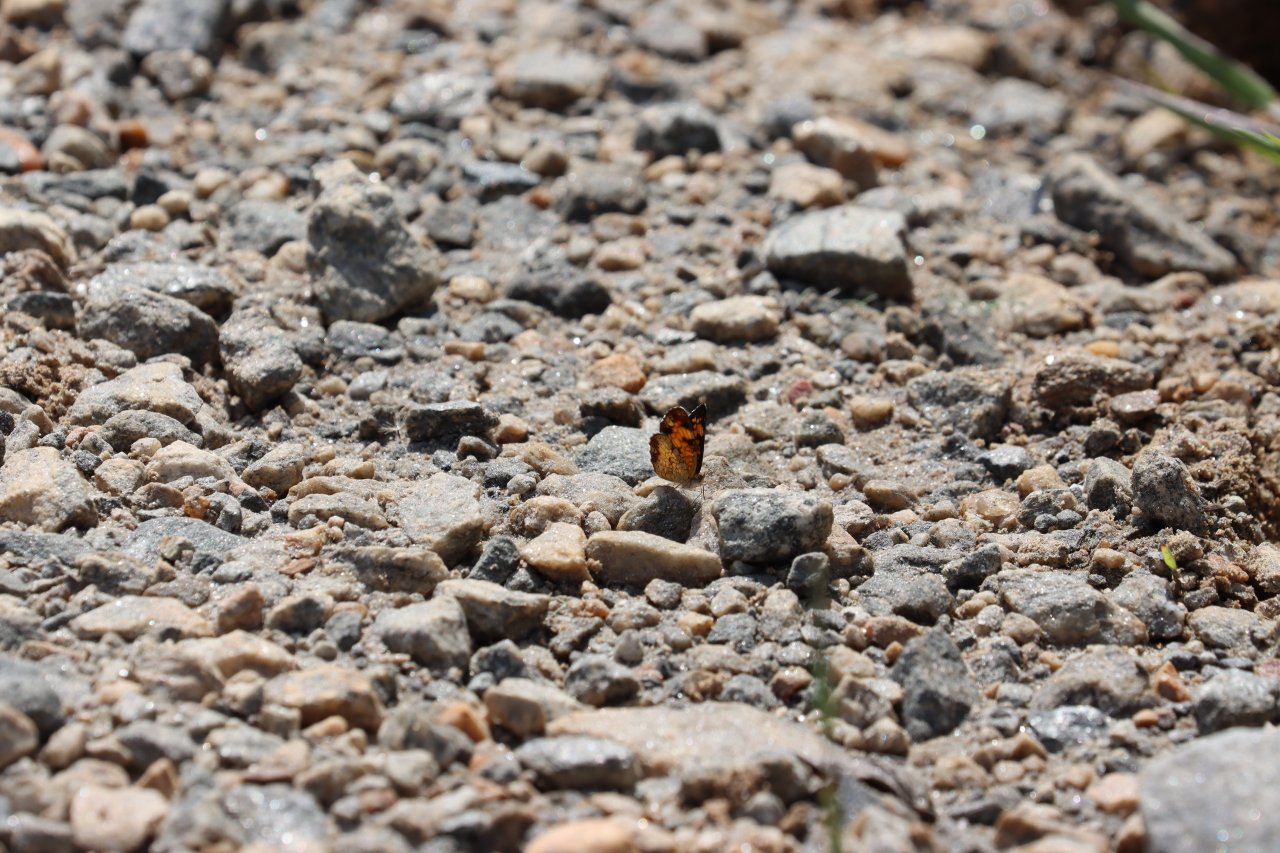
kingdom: Animalia
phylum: Arthropoda
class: Insecta
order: Lepidoptera
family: Nymphalidae
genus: Phyciodes
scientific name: Phyciodes tharos
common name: Pearl Crescent
